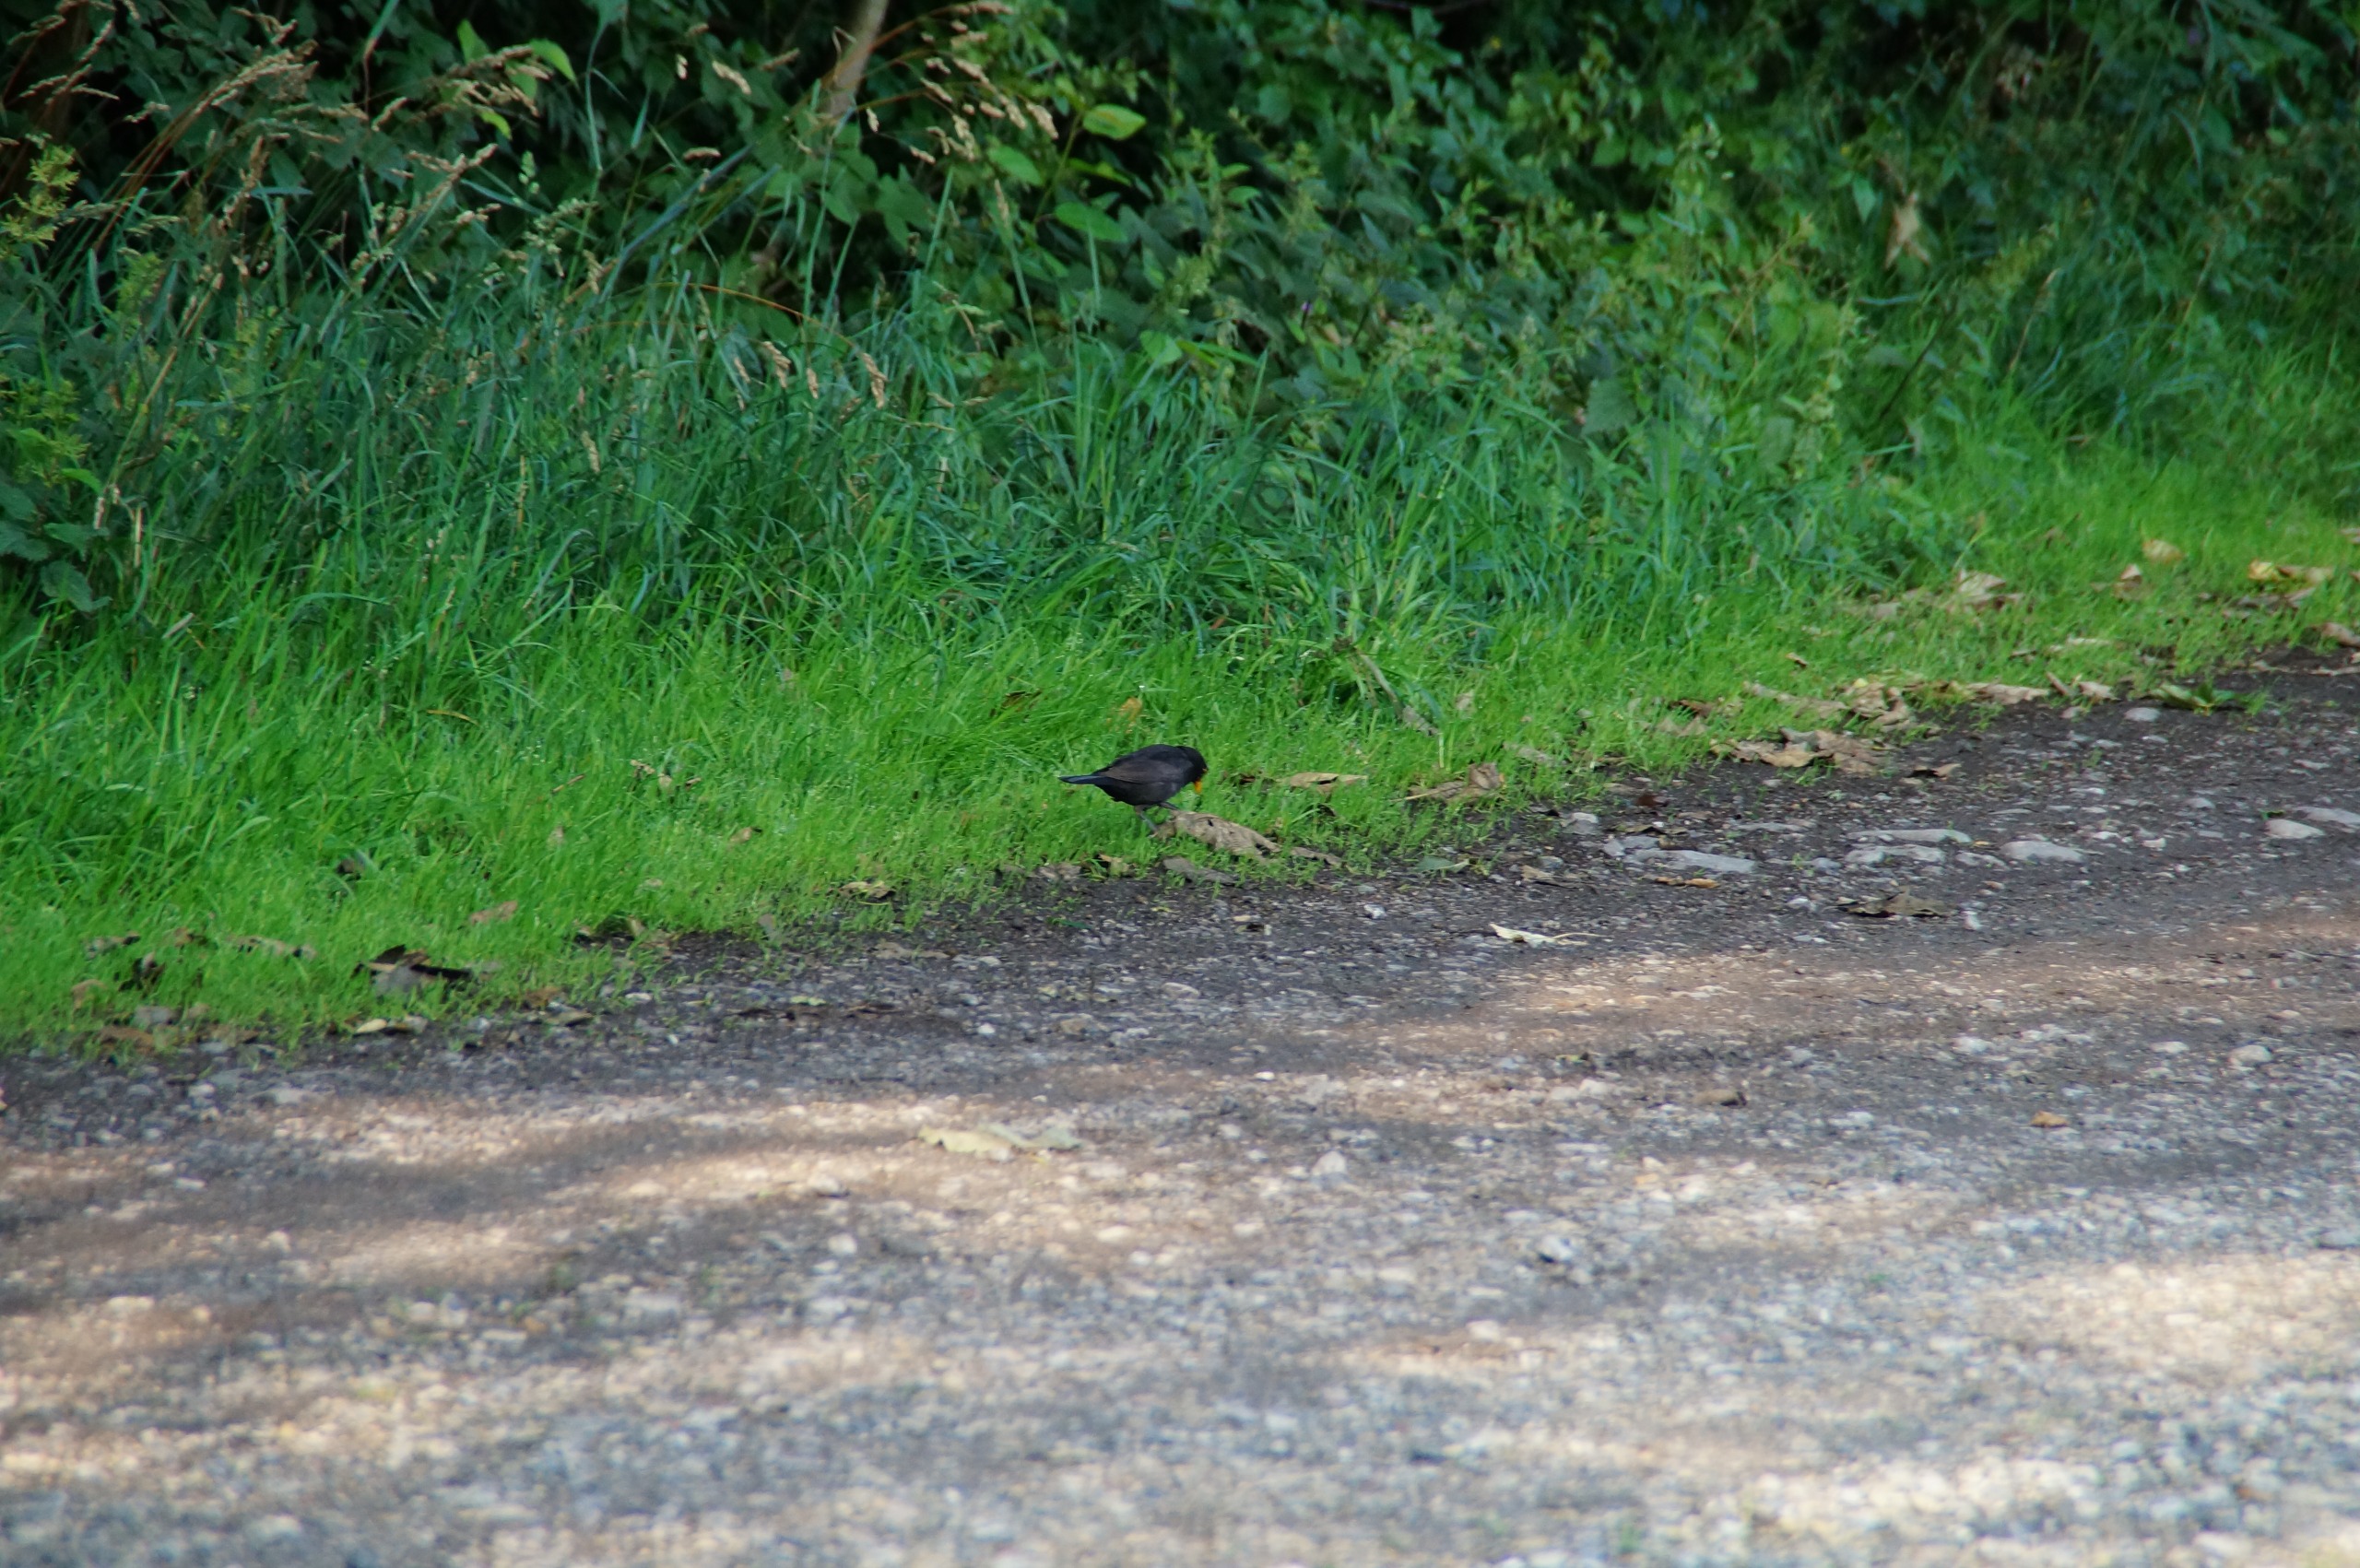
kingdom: Animalia
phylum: Chordata
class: Aves
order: Passeriformes
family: Turdidae
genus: Turdus
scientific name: Turdus merula
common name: Solsort
